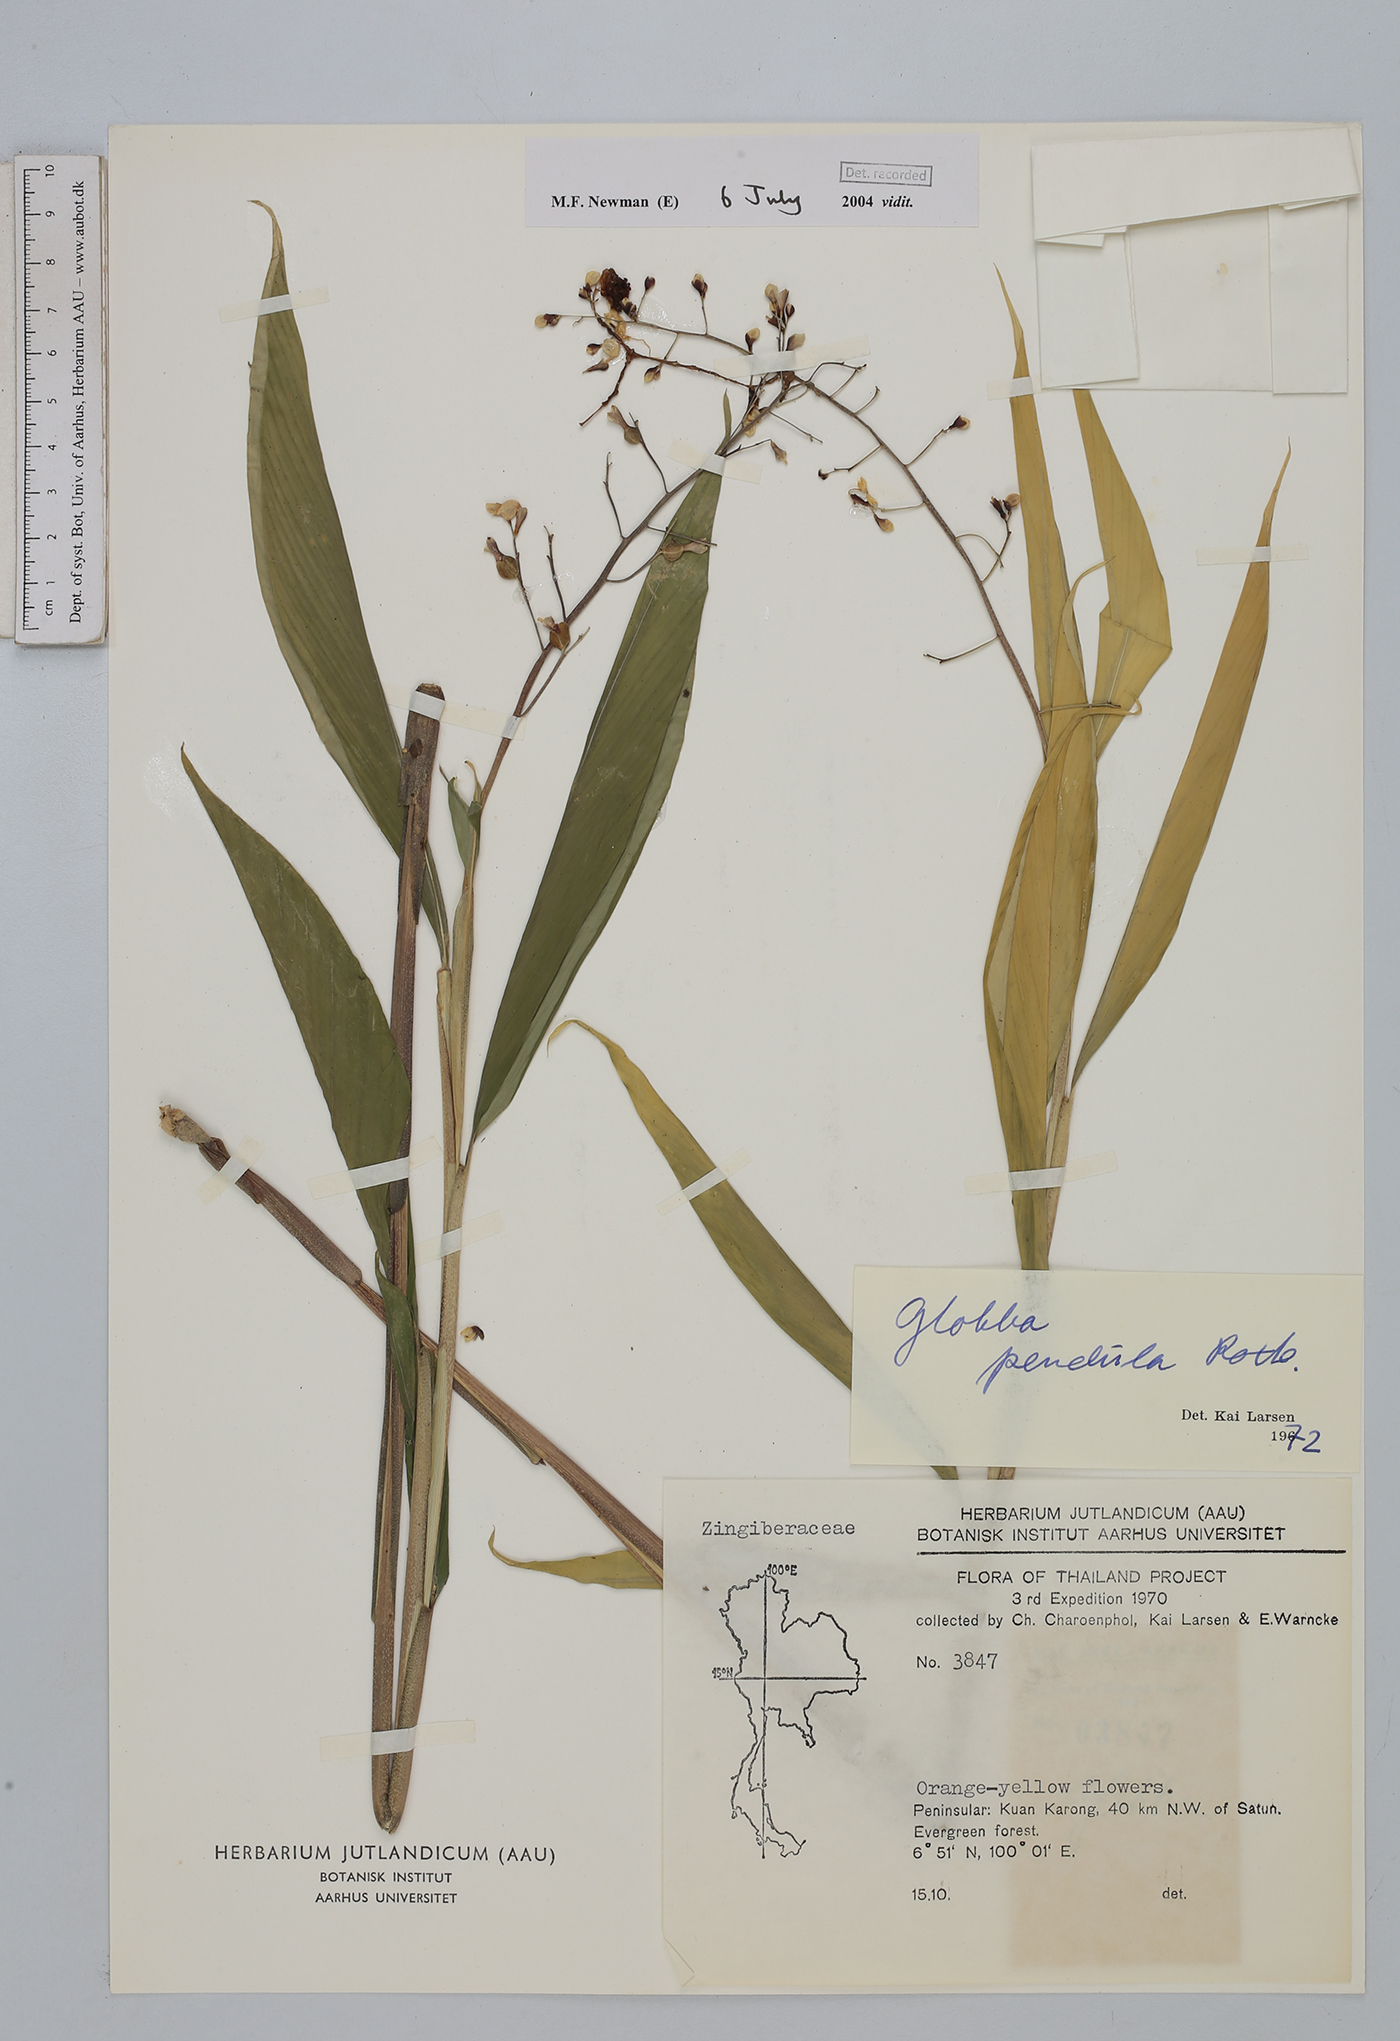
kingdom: Plantae
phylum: Tracheophyta
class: Liliopsida
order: Zingiberales
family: Zingiberaceae
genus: Globba
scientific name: Globba pendula
